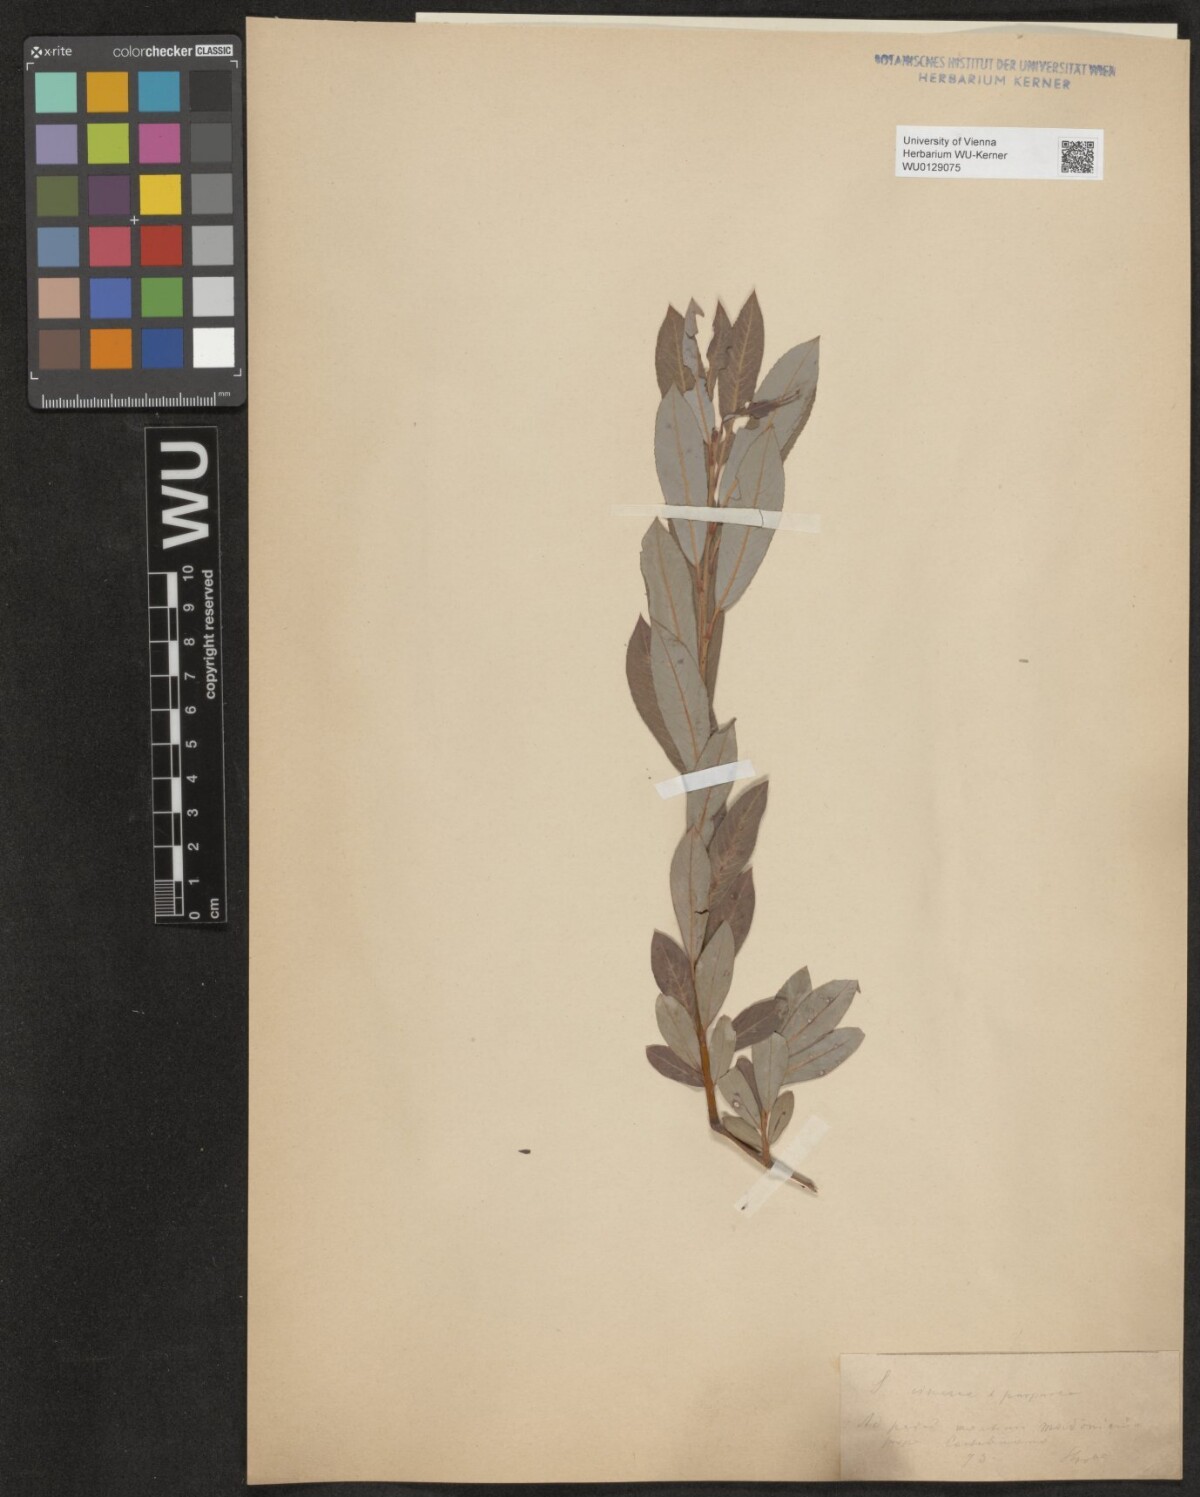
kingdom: Plantae
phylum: Tracheophyta
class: Magnoliopsida
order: Malpighiales
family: Salicaceae
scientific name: Salicaceae
